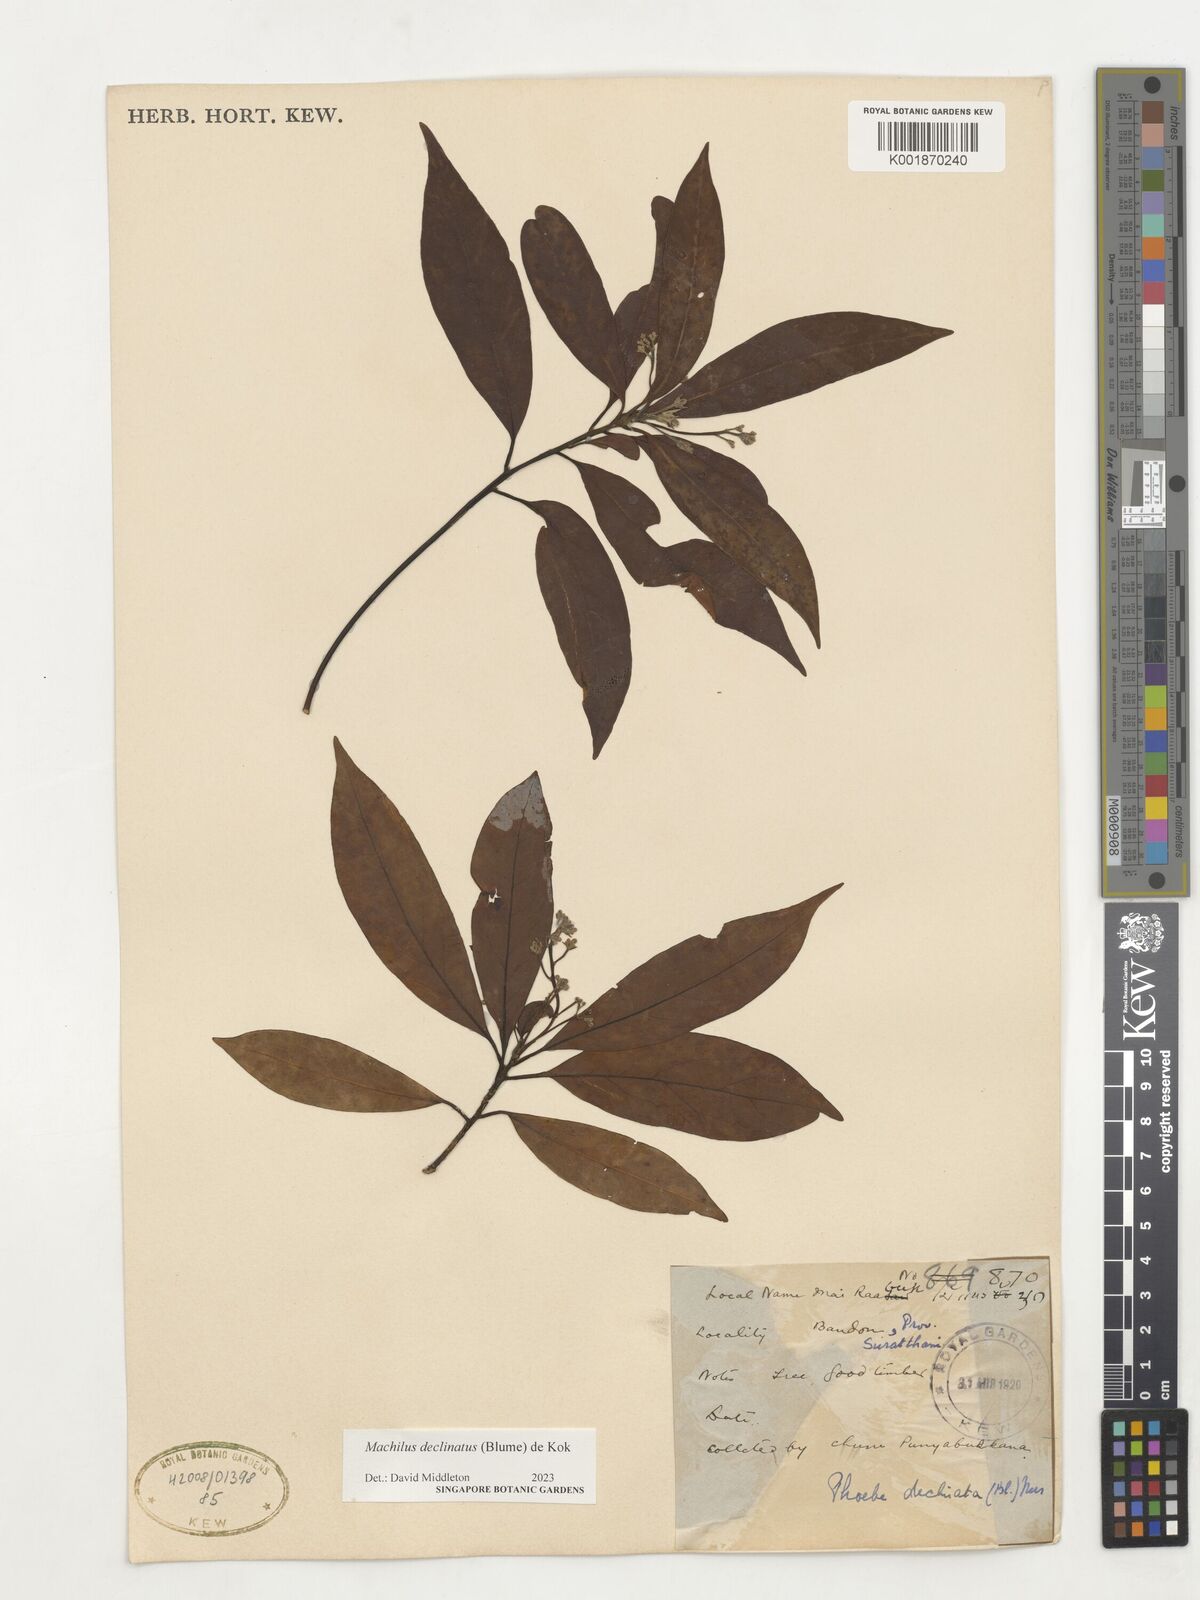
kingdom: Plantae
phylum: Tracheophyta
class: Magnoliopsida
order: Laurales
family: Lauraceae
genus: Machilus
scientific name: Machilus declinata
